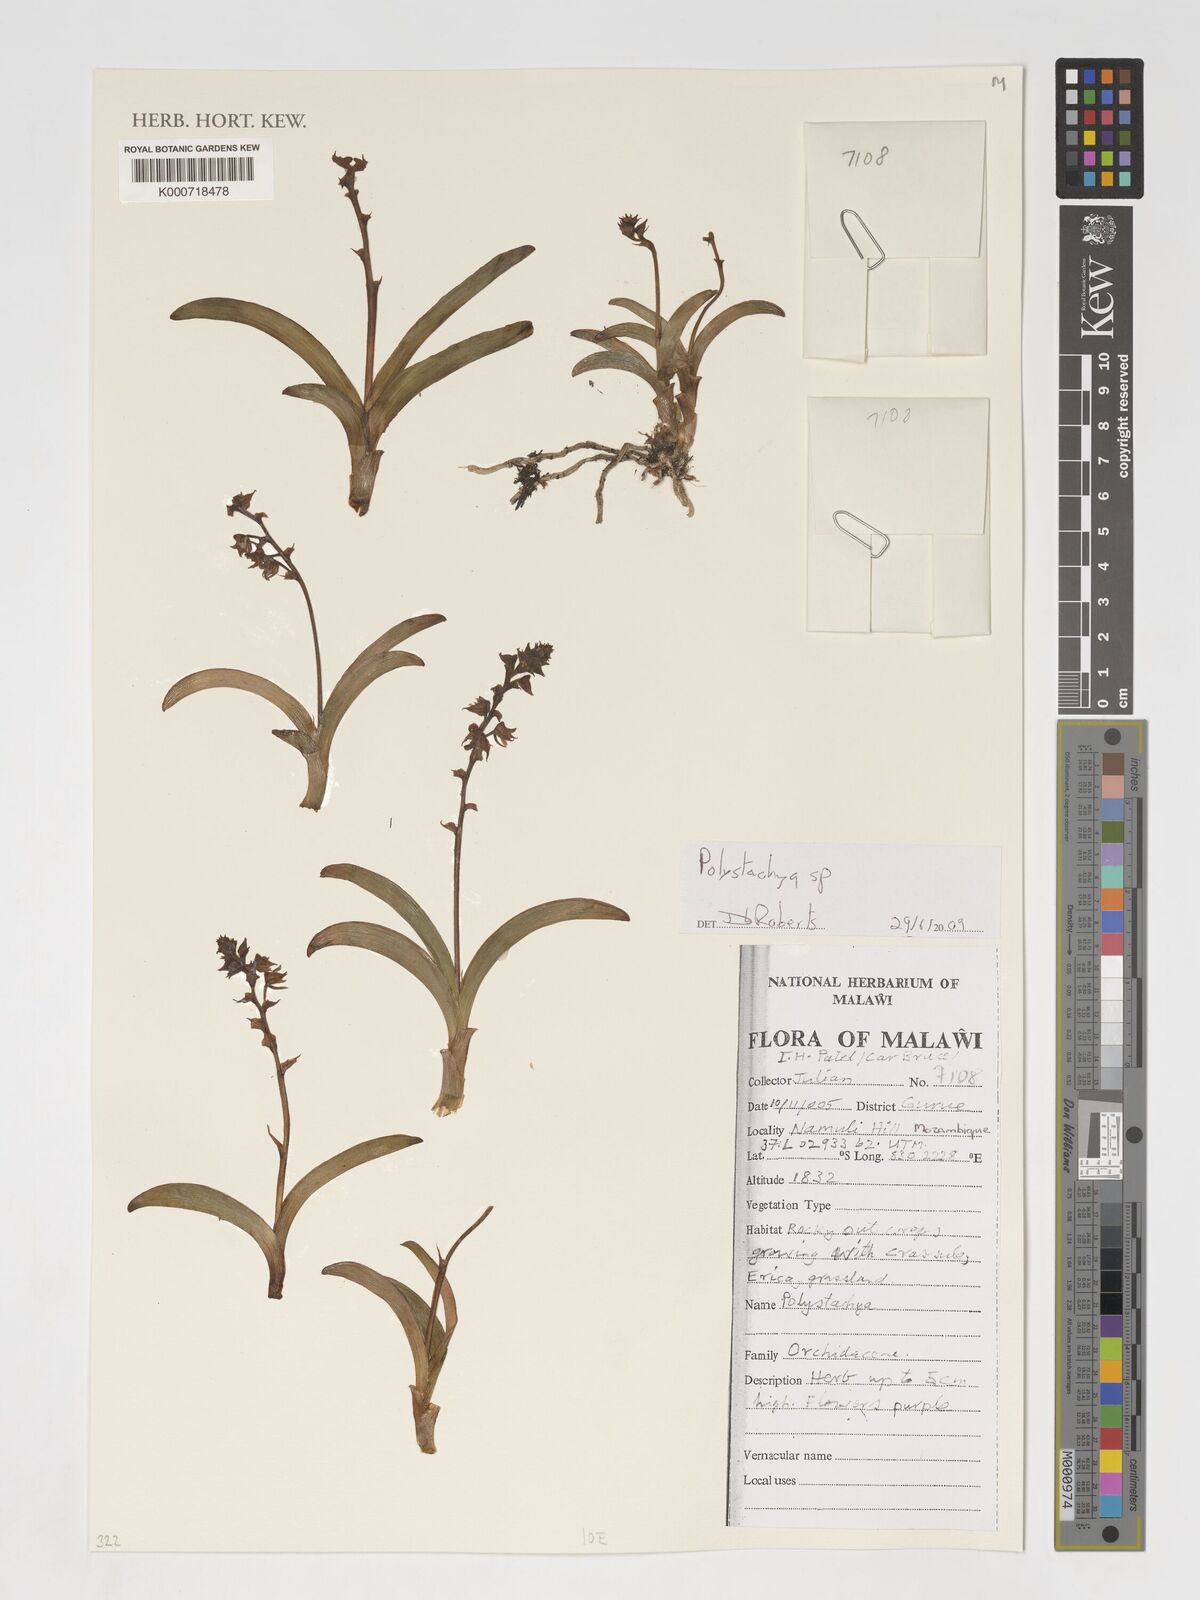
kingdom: Plantae
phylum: Tracheophyta
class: Liliopsida
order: Asparagales
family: Orchidaceae
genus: Polystachya
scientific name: Polystachya
